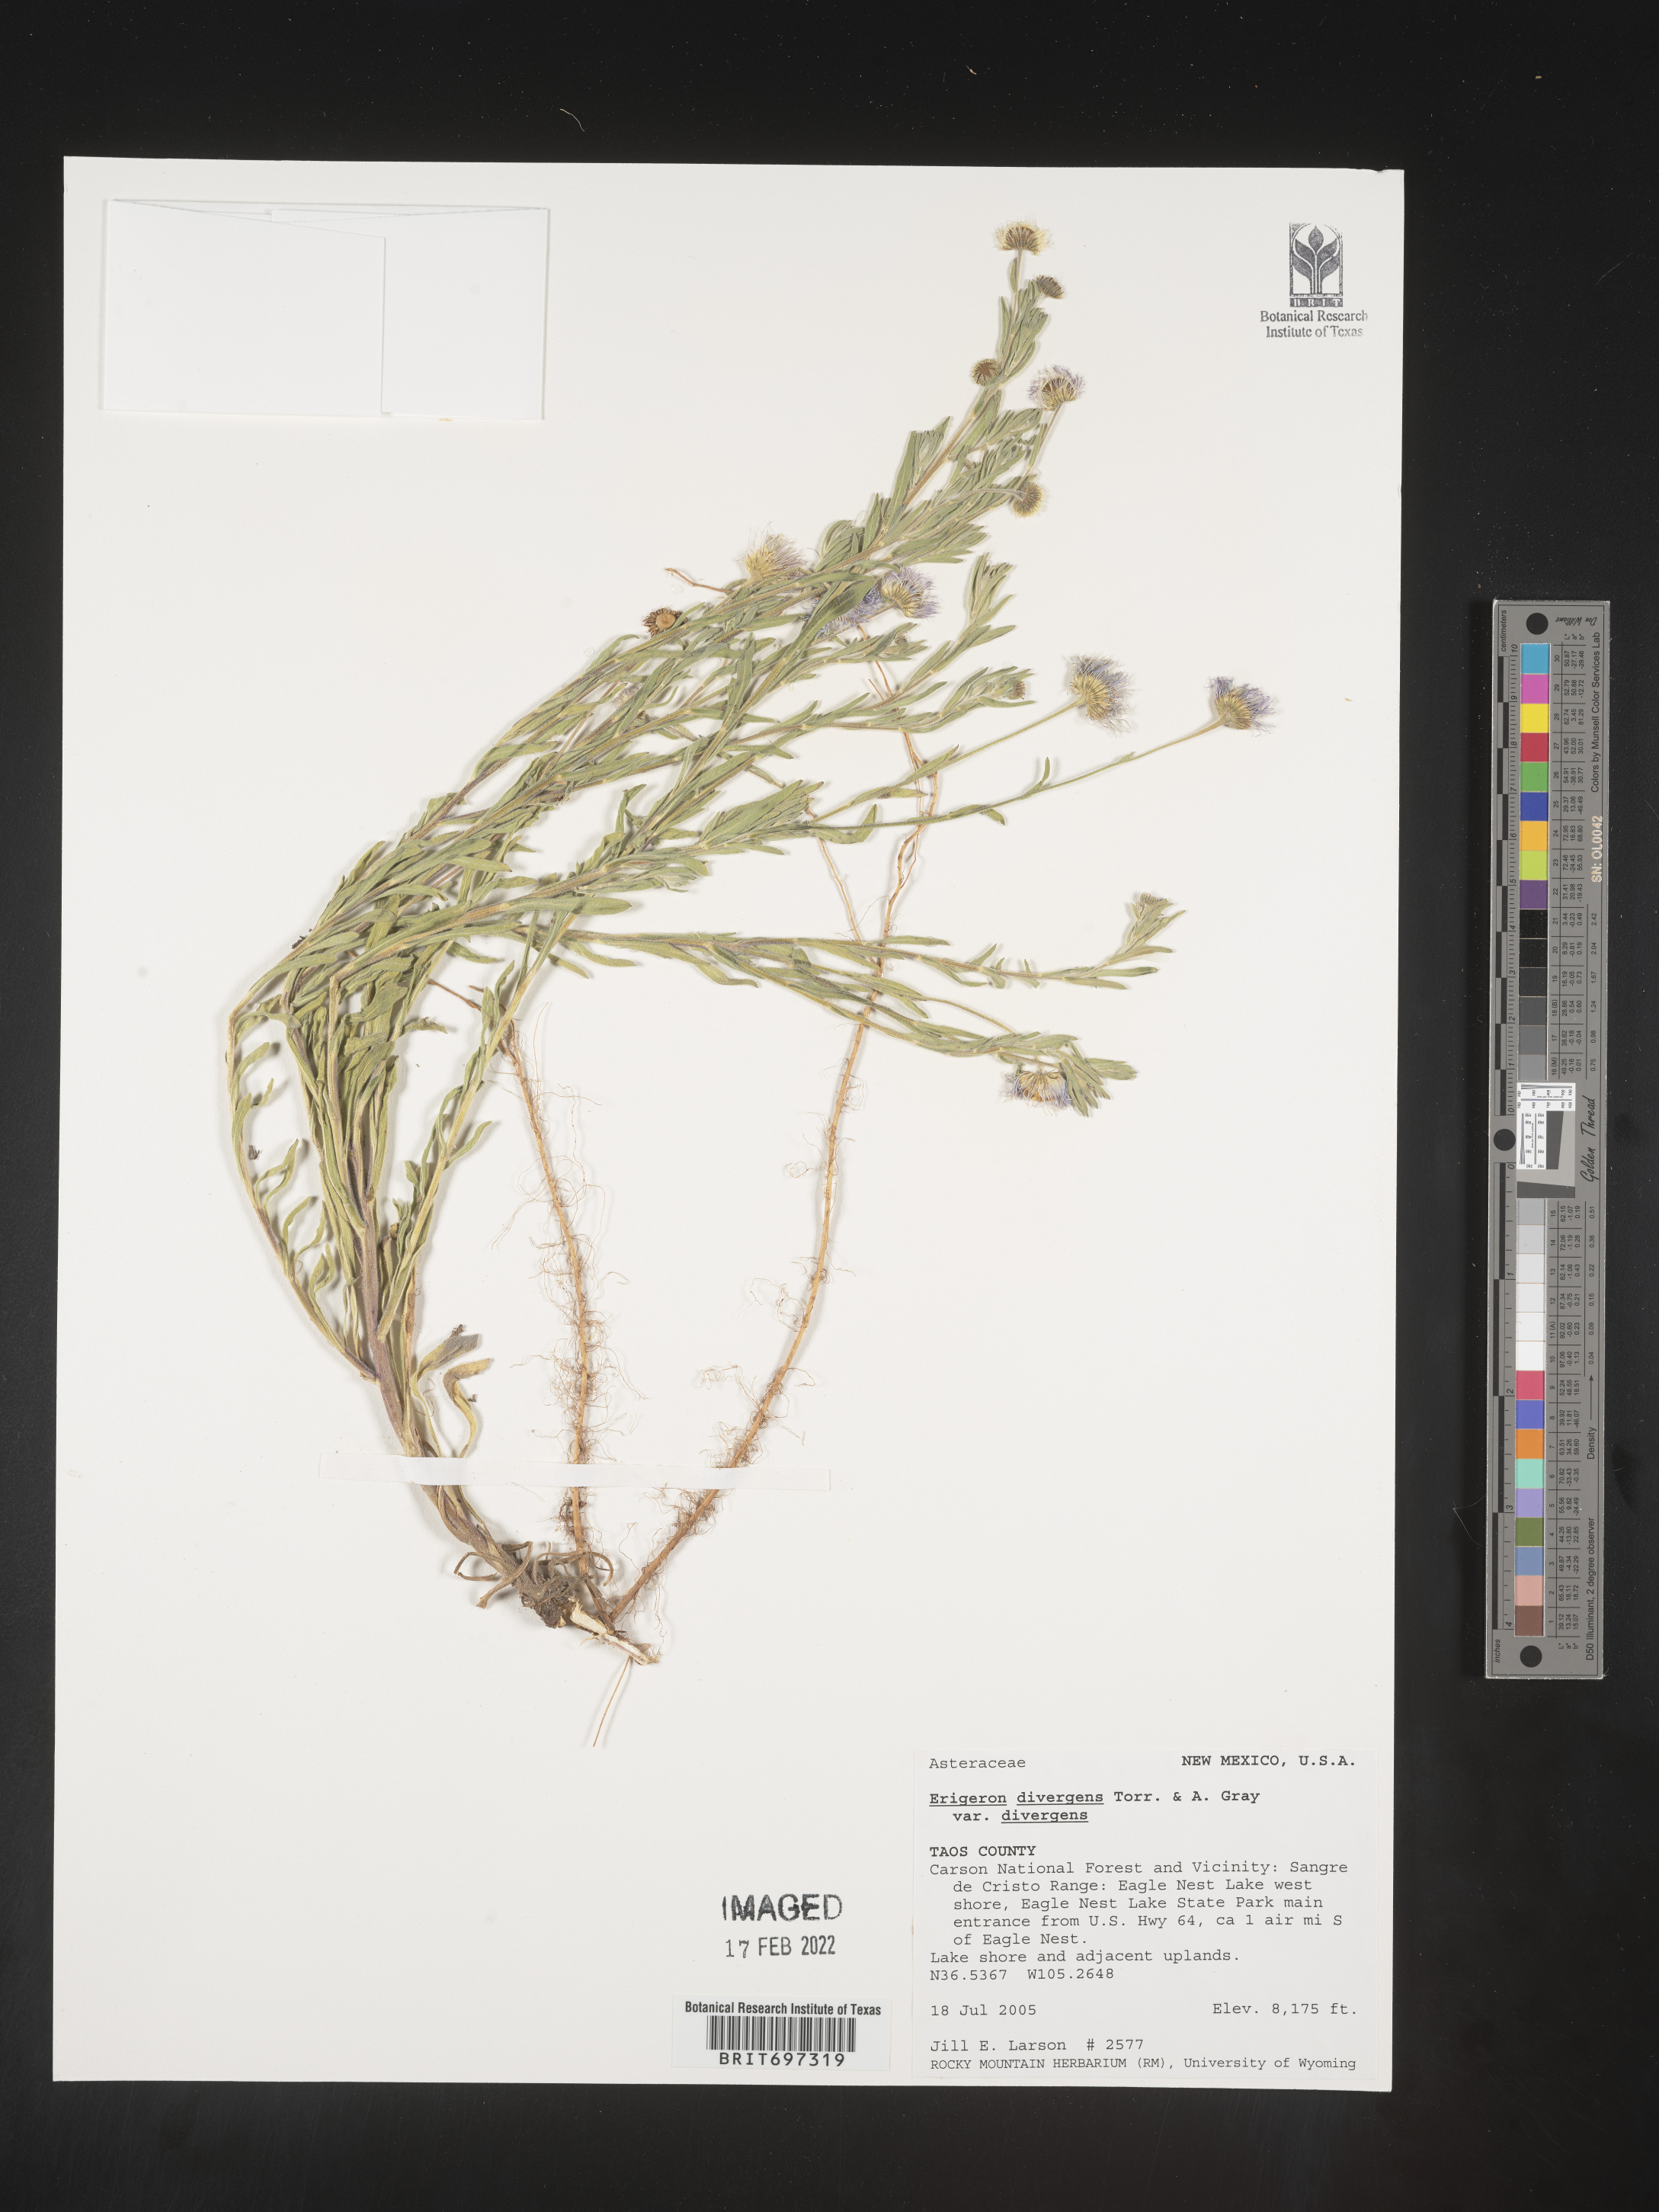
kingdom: Plantae
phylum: Tracheophyta
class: Magnoliopsida
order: Asterales
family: Asteraceae
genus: Erigeron
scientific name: Erigeron divergens
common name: Diffuse fleabane
